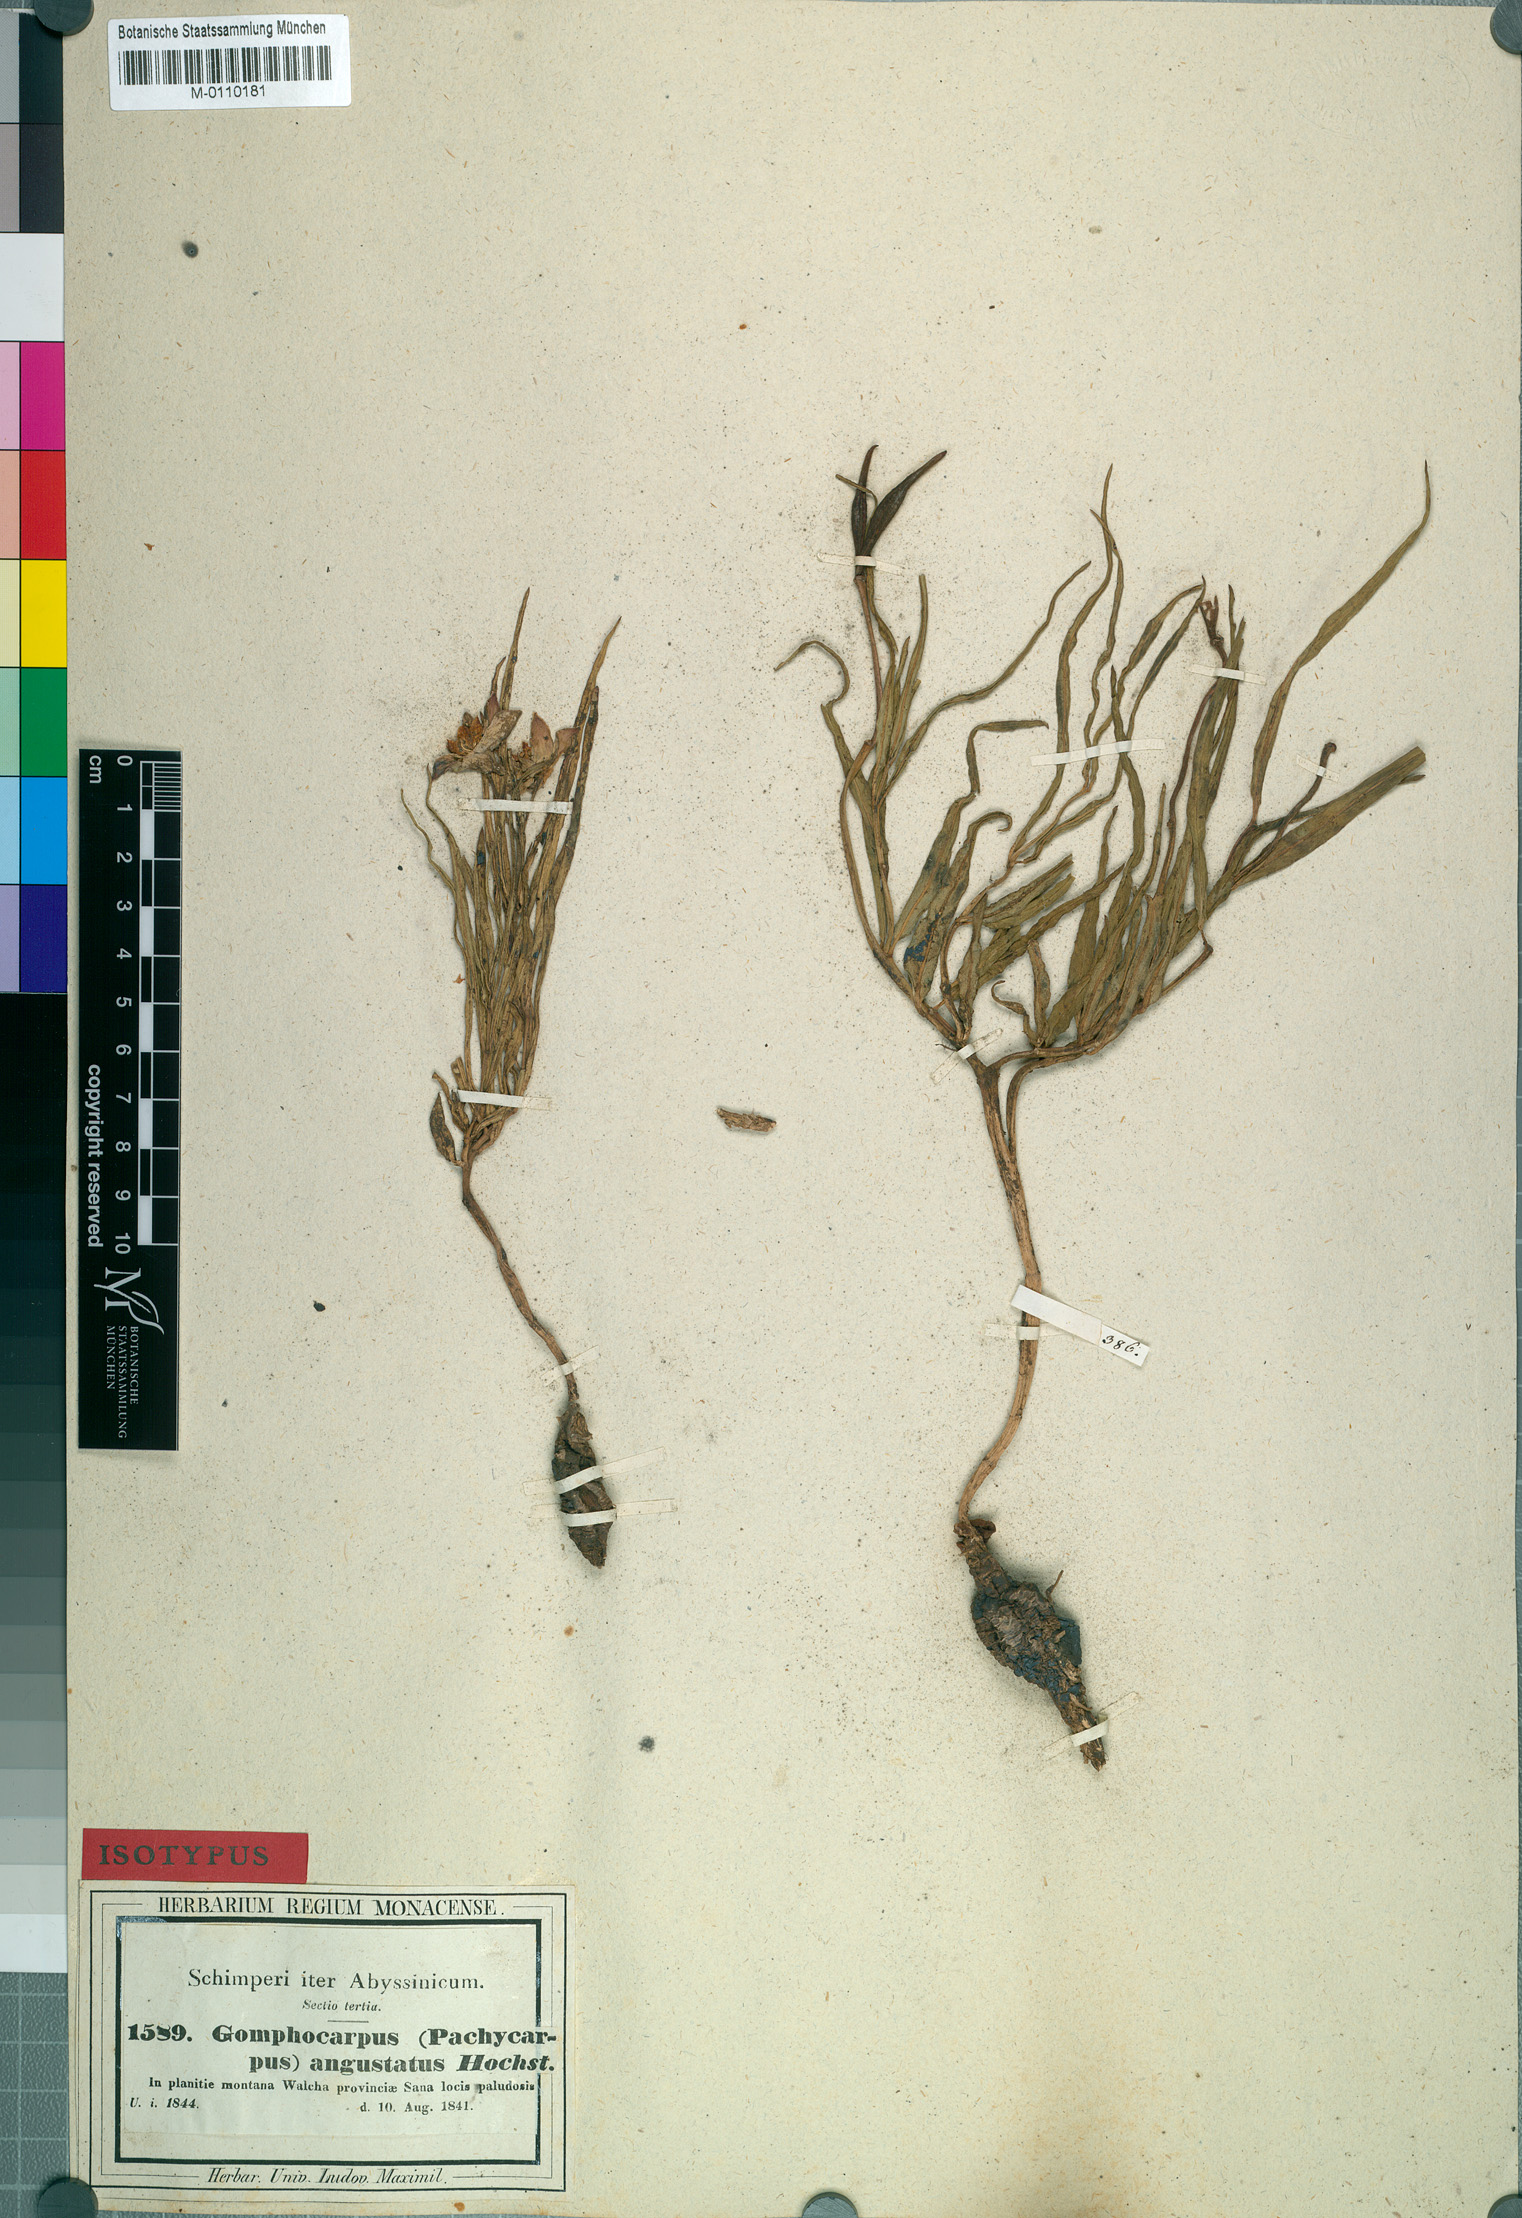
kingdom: Plantae
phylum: Tracheophyta
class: Magnoliopsida
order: Gentianales
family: Apocynaceae
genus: Stathmostelma
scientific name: Stathmostelma angustatum
